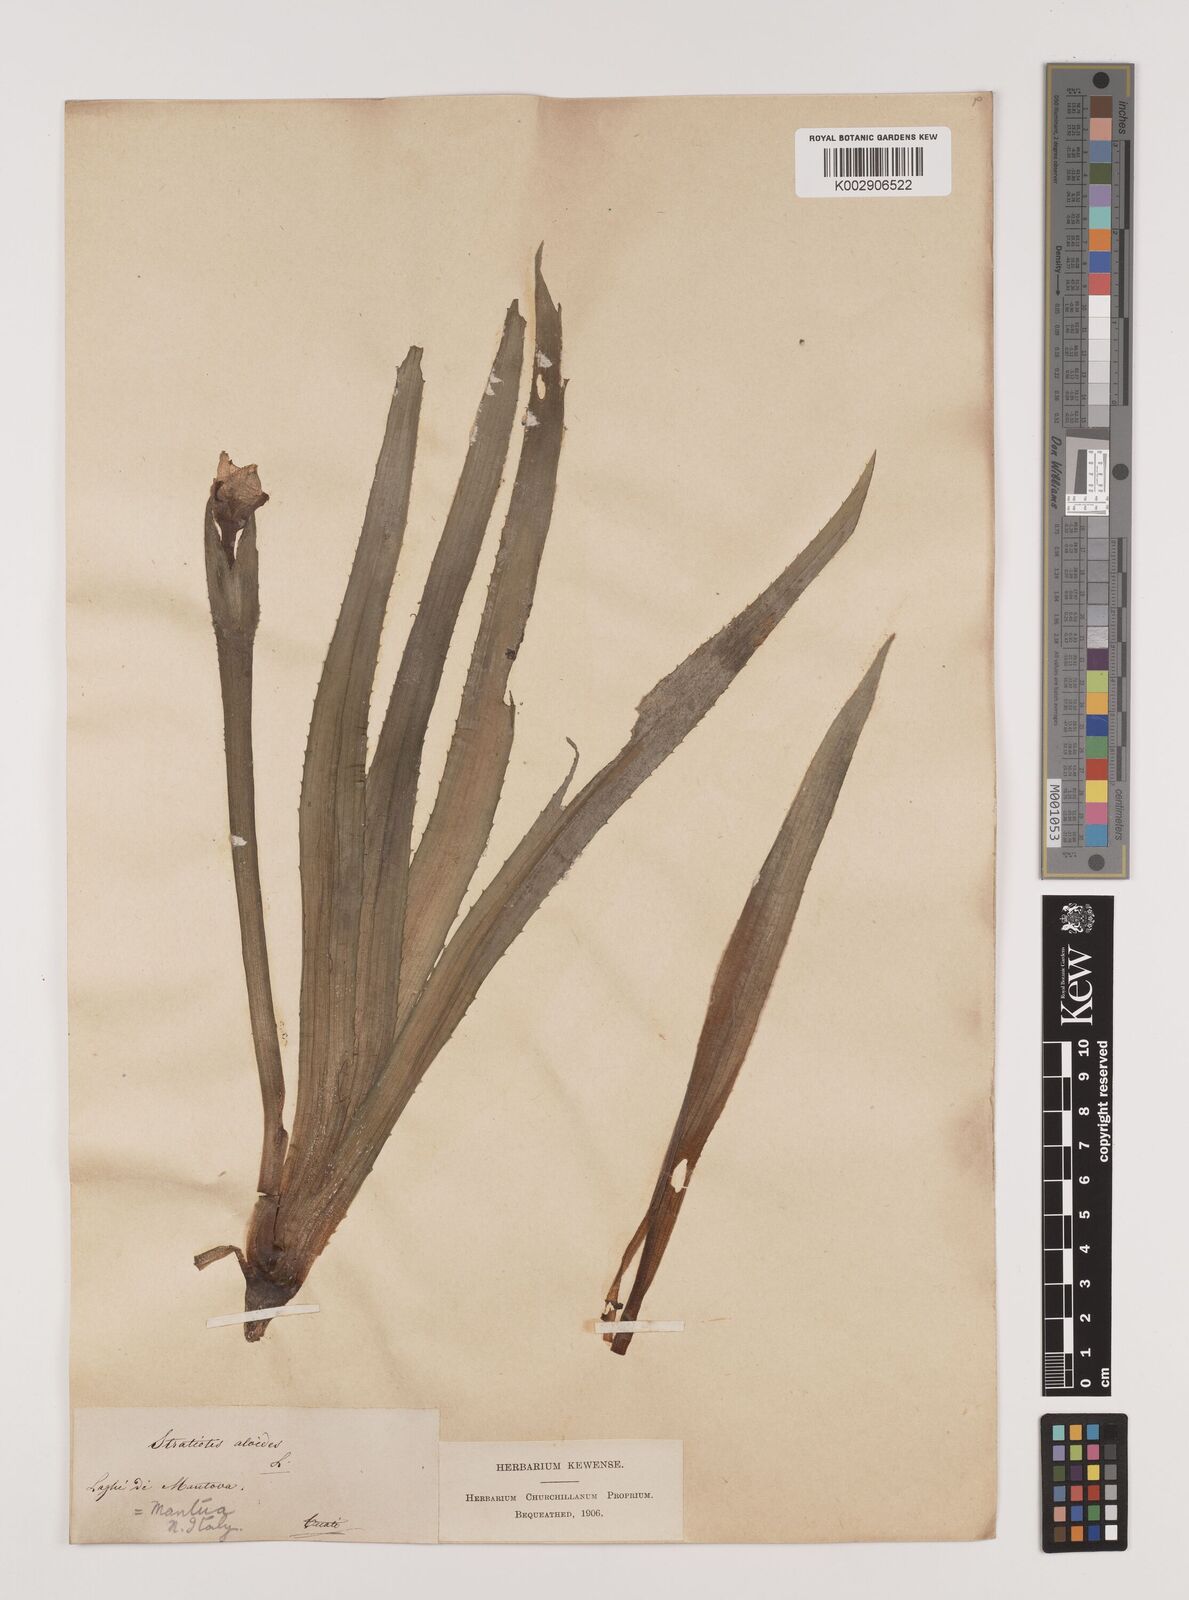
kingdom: Plantae
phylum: Tracheophyta
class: Liliopsida
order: Alismatales
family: Hydrocharitaceae
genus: Stratiotes
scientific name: Stratiotes aloides
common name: Water-soldier
